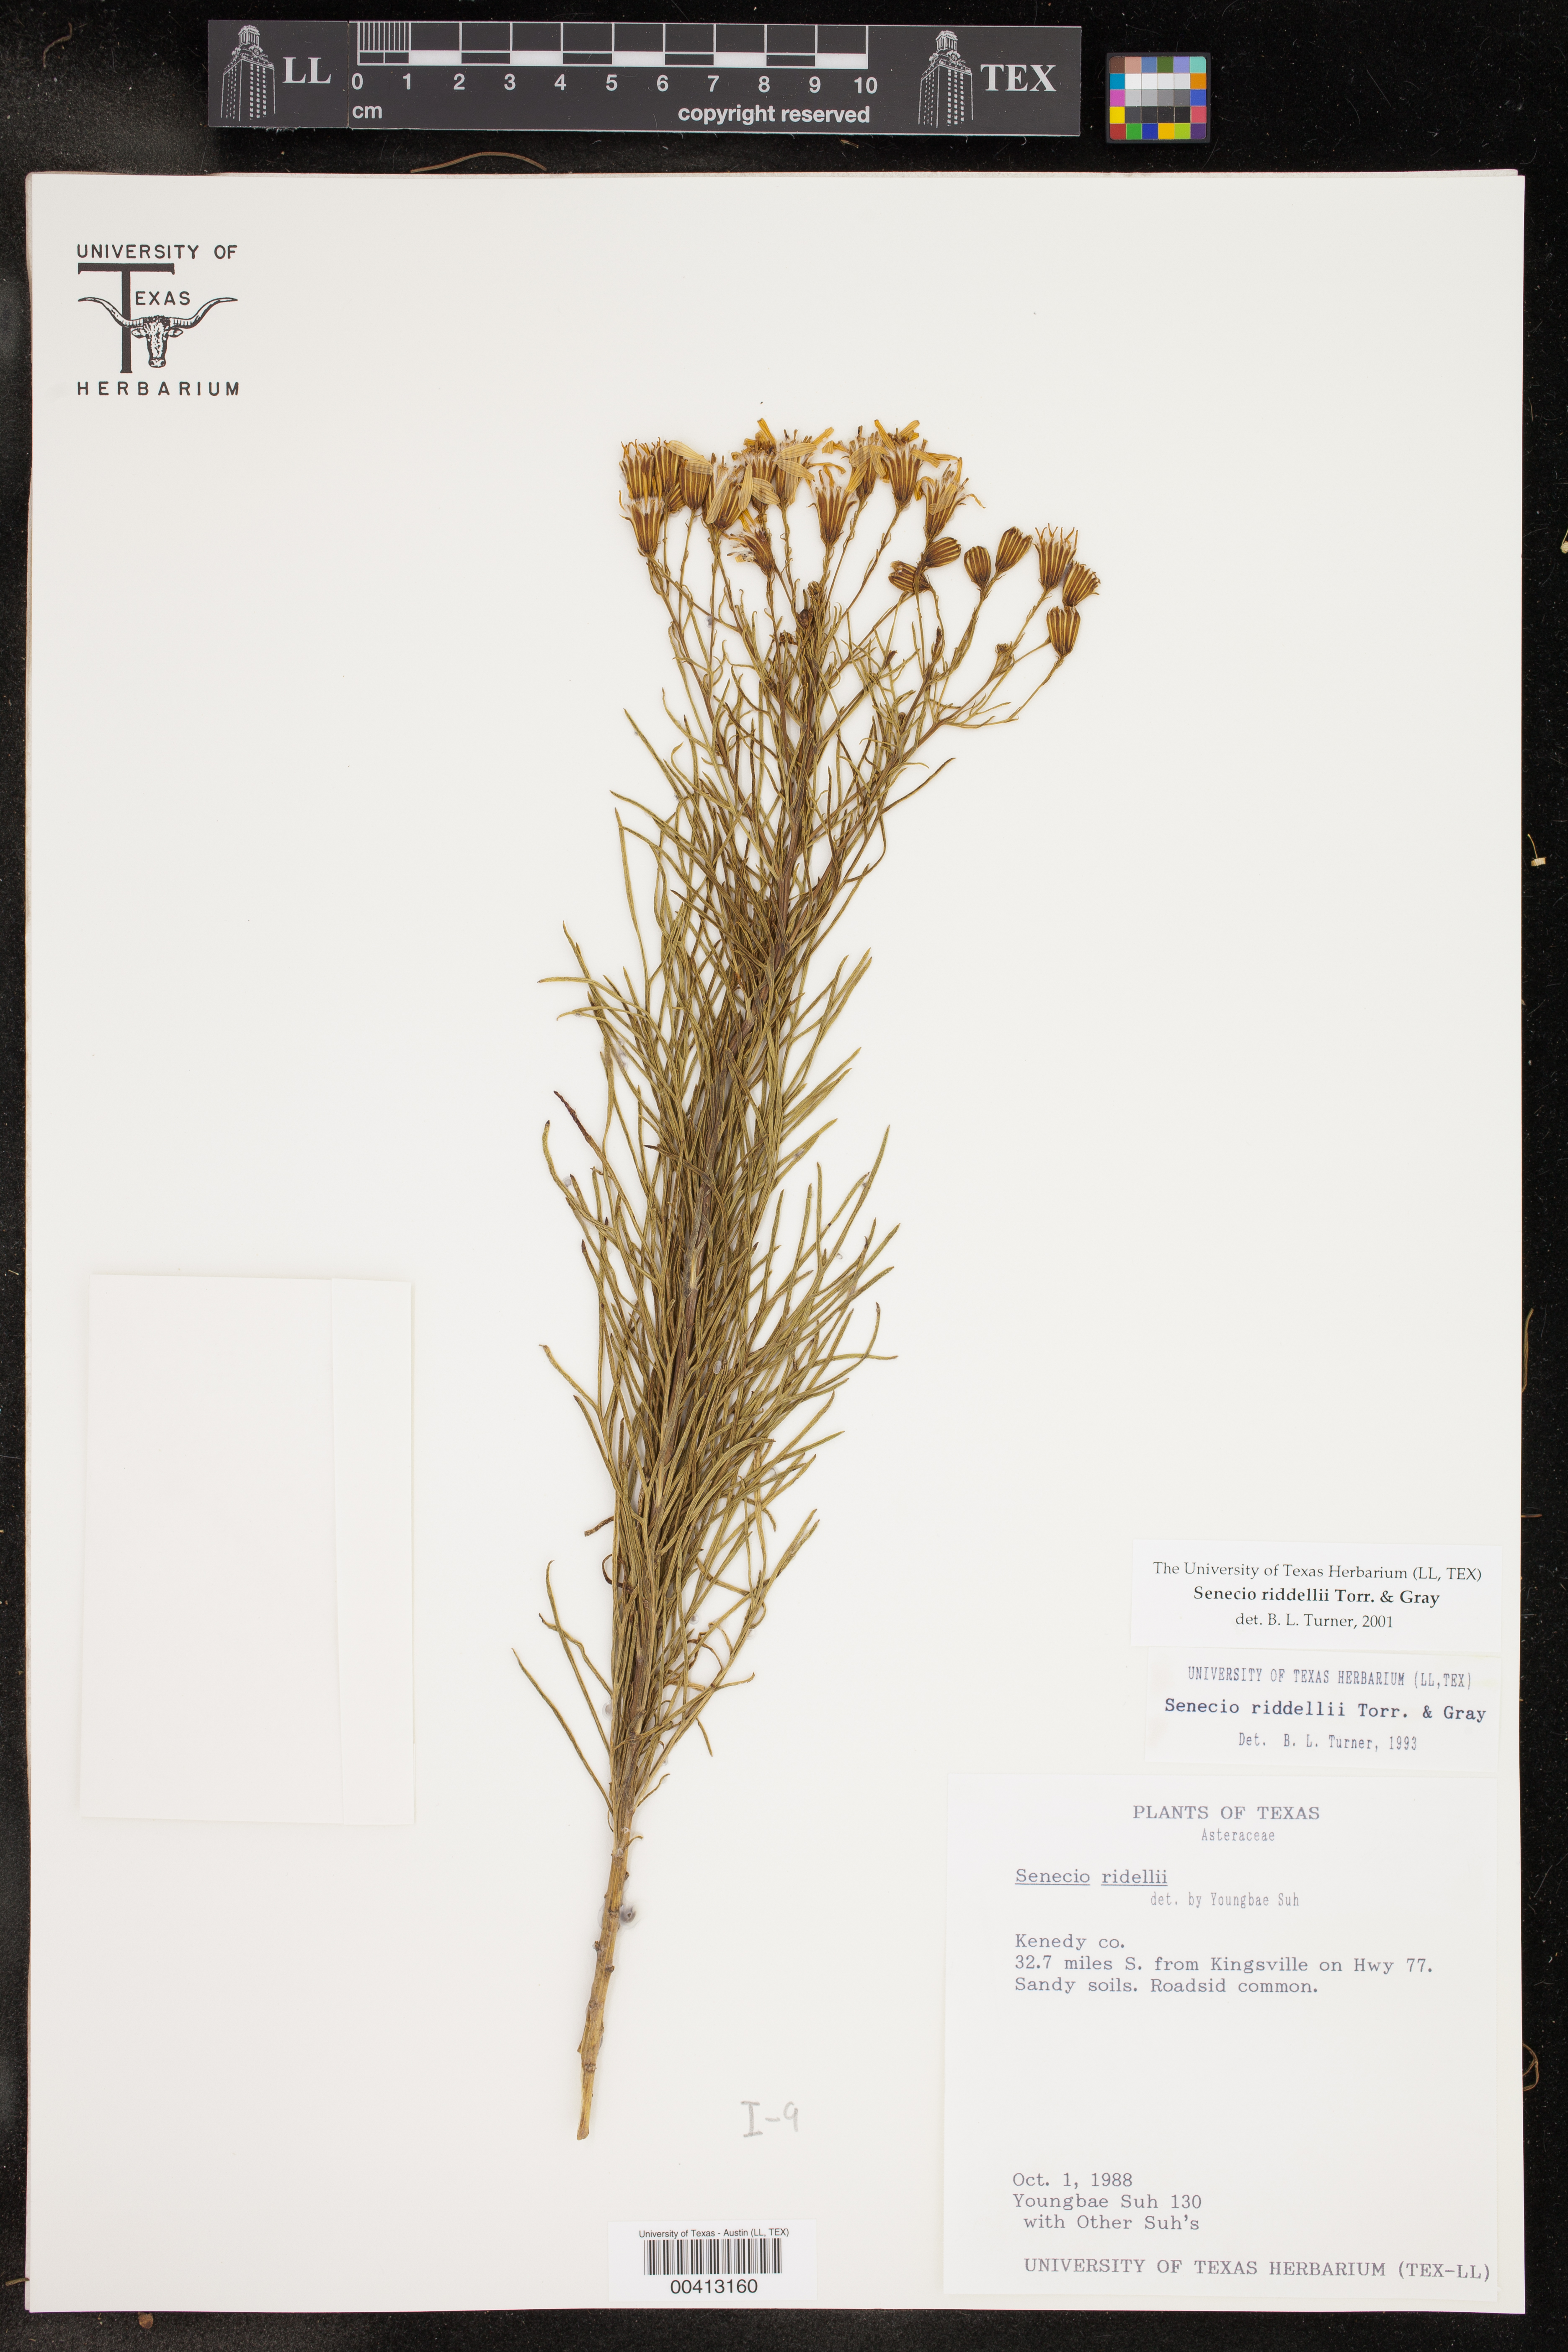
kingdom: Plantae
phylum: Tracheophyta
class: Magnoliopsida
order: Asterales
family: Asteraceae
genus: Senecio
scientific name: Senecio riddellii
